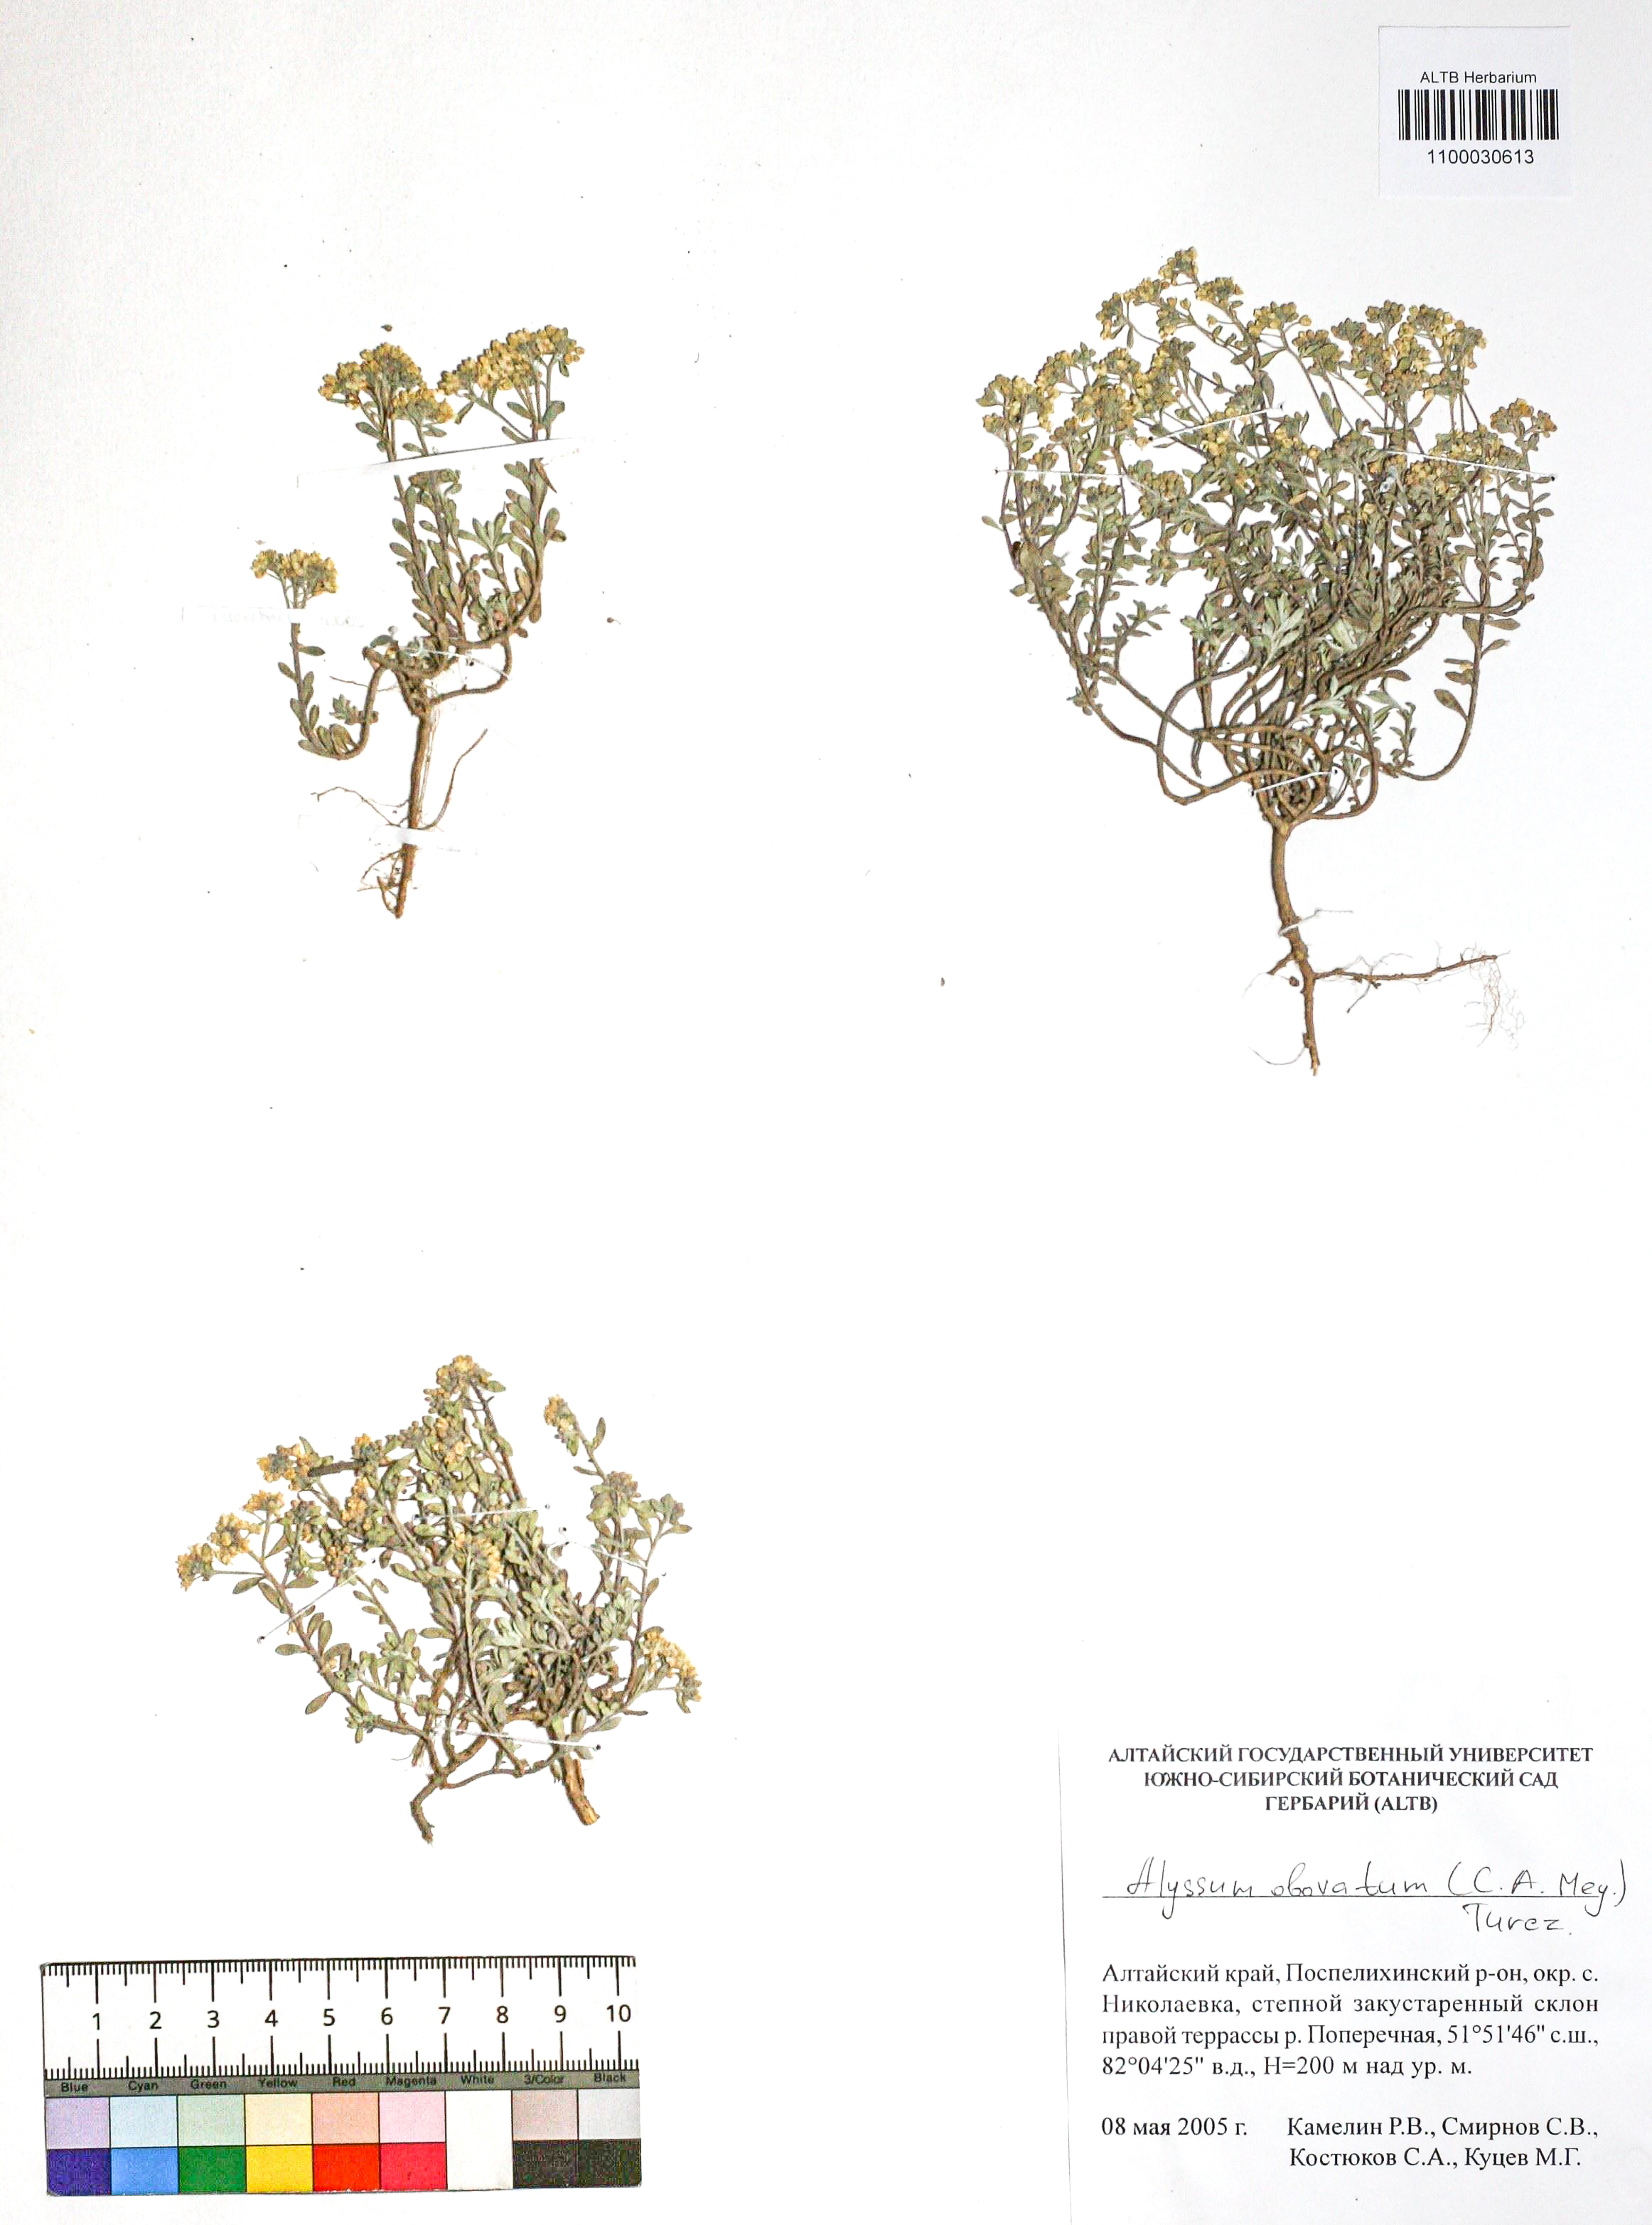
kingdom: Plantae
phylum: Tracheophyta
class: Magnoliopsida
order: Brassicales
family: Brassicaceae
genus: Odontarrhena
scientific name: Odontarrhena obovata
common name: American alyssum
